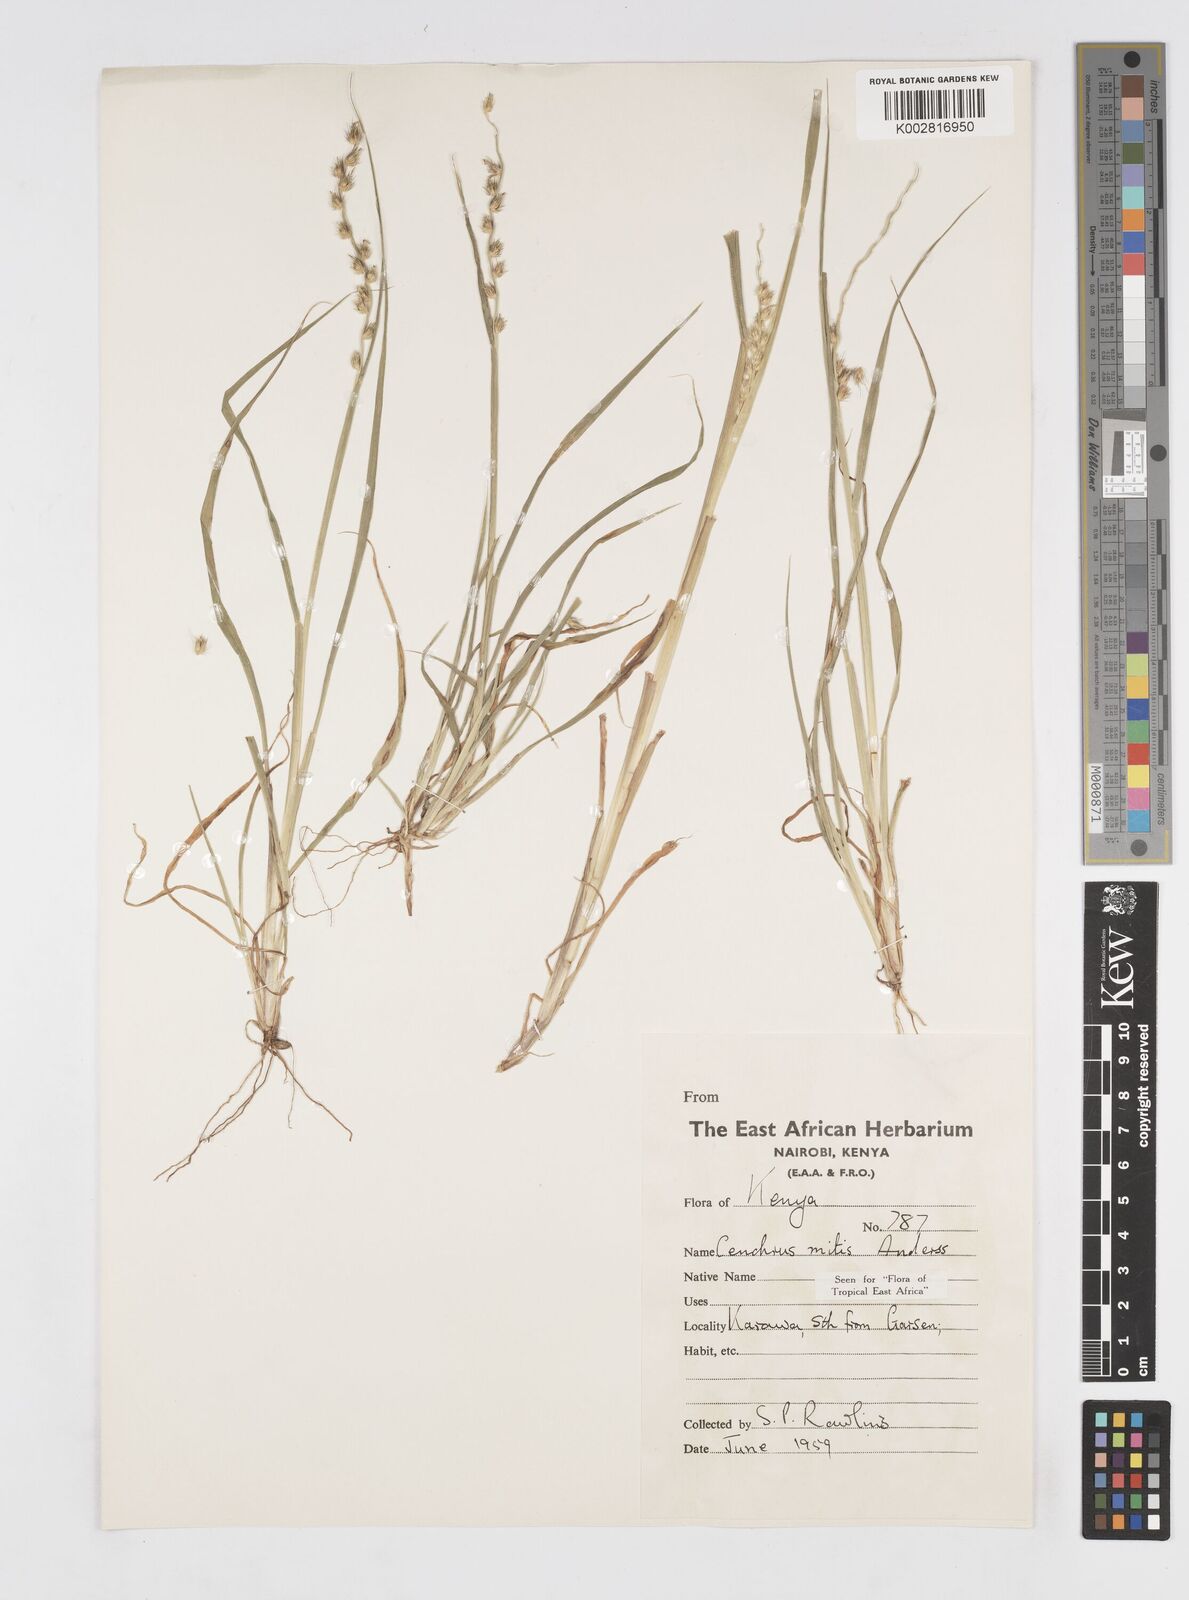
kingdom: Plantae
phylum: Tracheophyta
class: Liliopsida
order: Poales
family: Poaceae
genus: Cenchrus
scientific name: Cenchrus mitis
